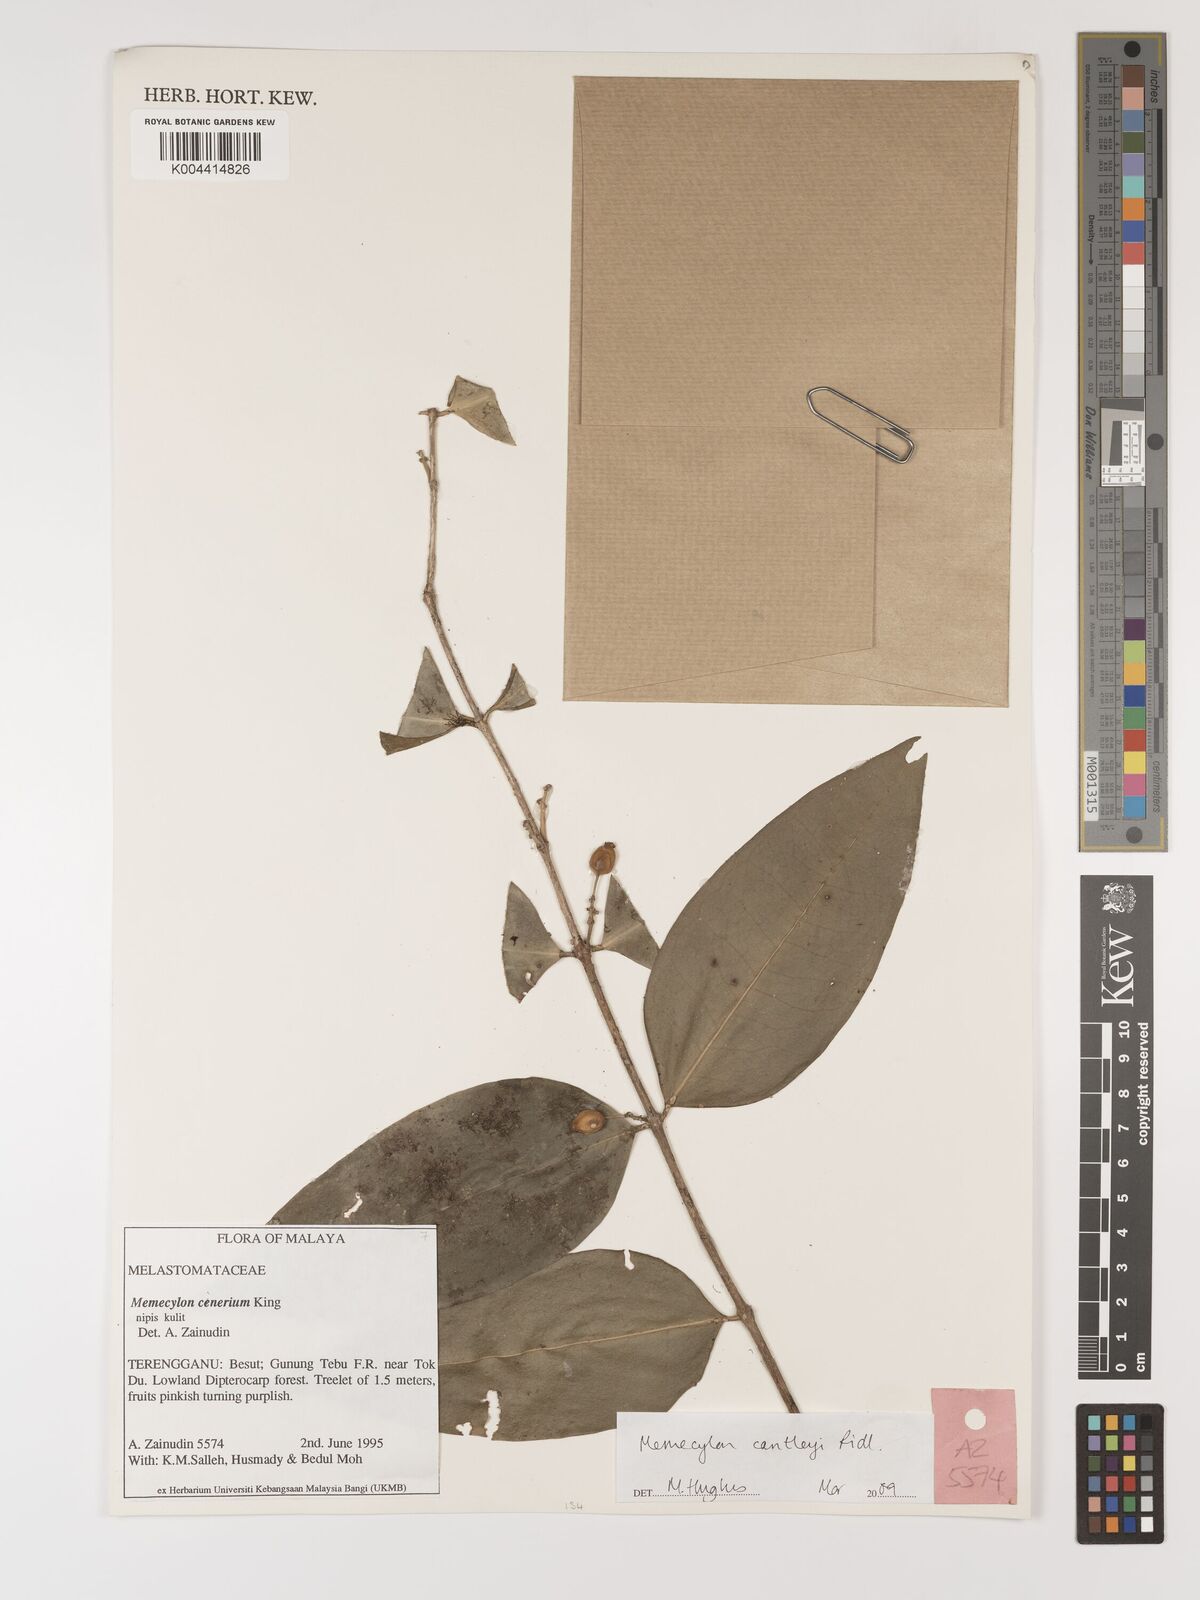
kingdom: Plantae
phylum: Tracheophyta
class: Magnoliopsida
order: Myrtales
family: Melastomataceae
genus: Memecylon
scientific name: Memecylon cantleyi
